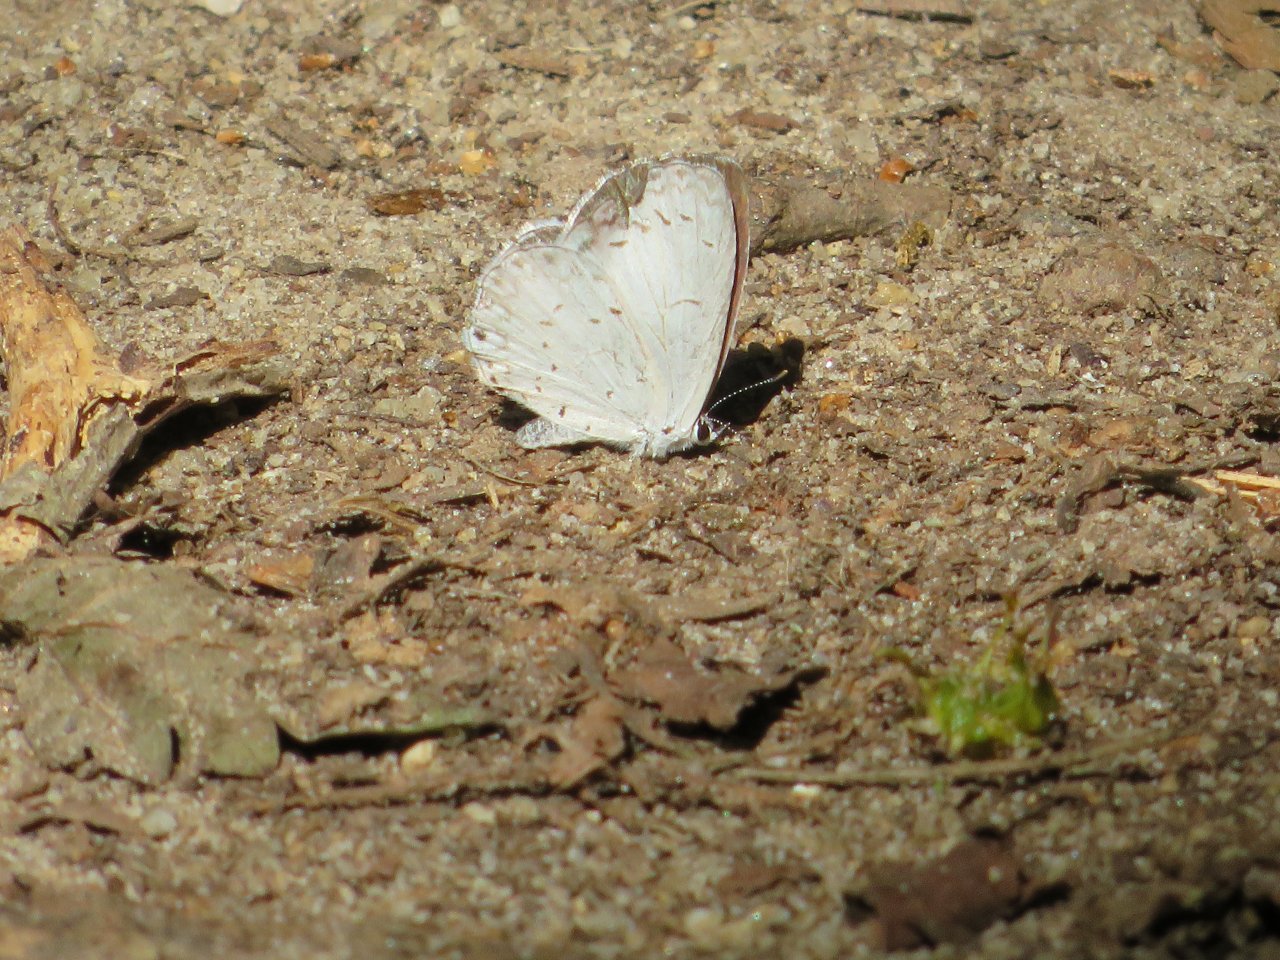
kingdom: Animalia
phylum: Arthropoda
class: Insecta
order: Lepidoptera
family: Lycaenidae
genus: Cyaniris
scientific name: Cyaniris neglecta
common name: Summer Azure
